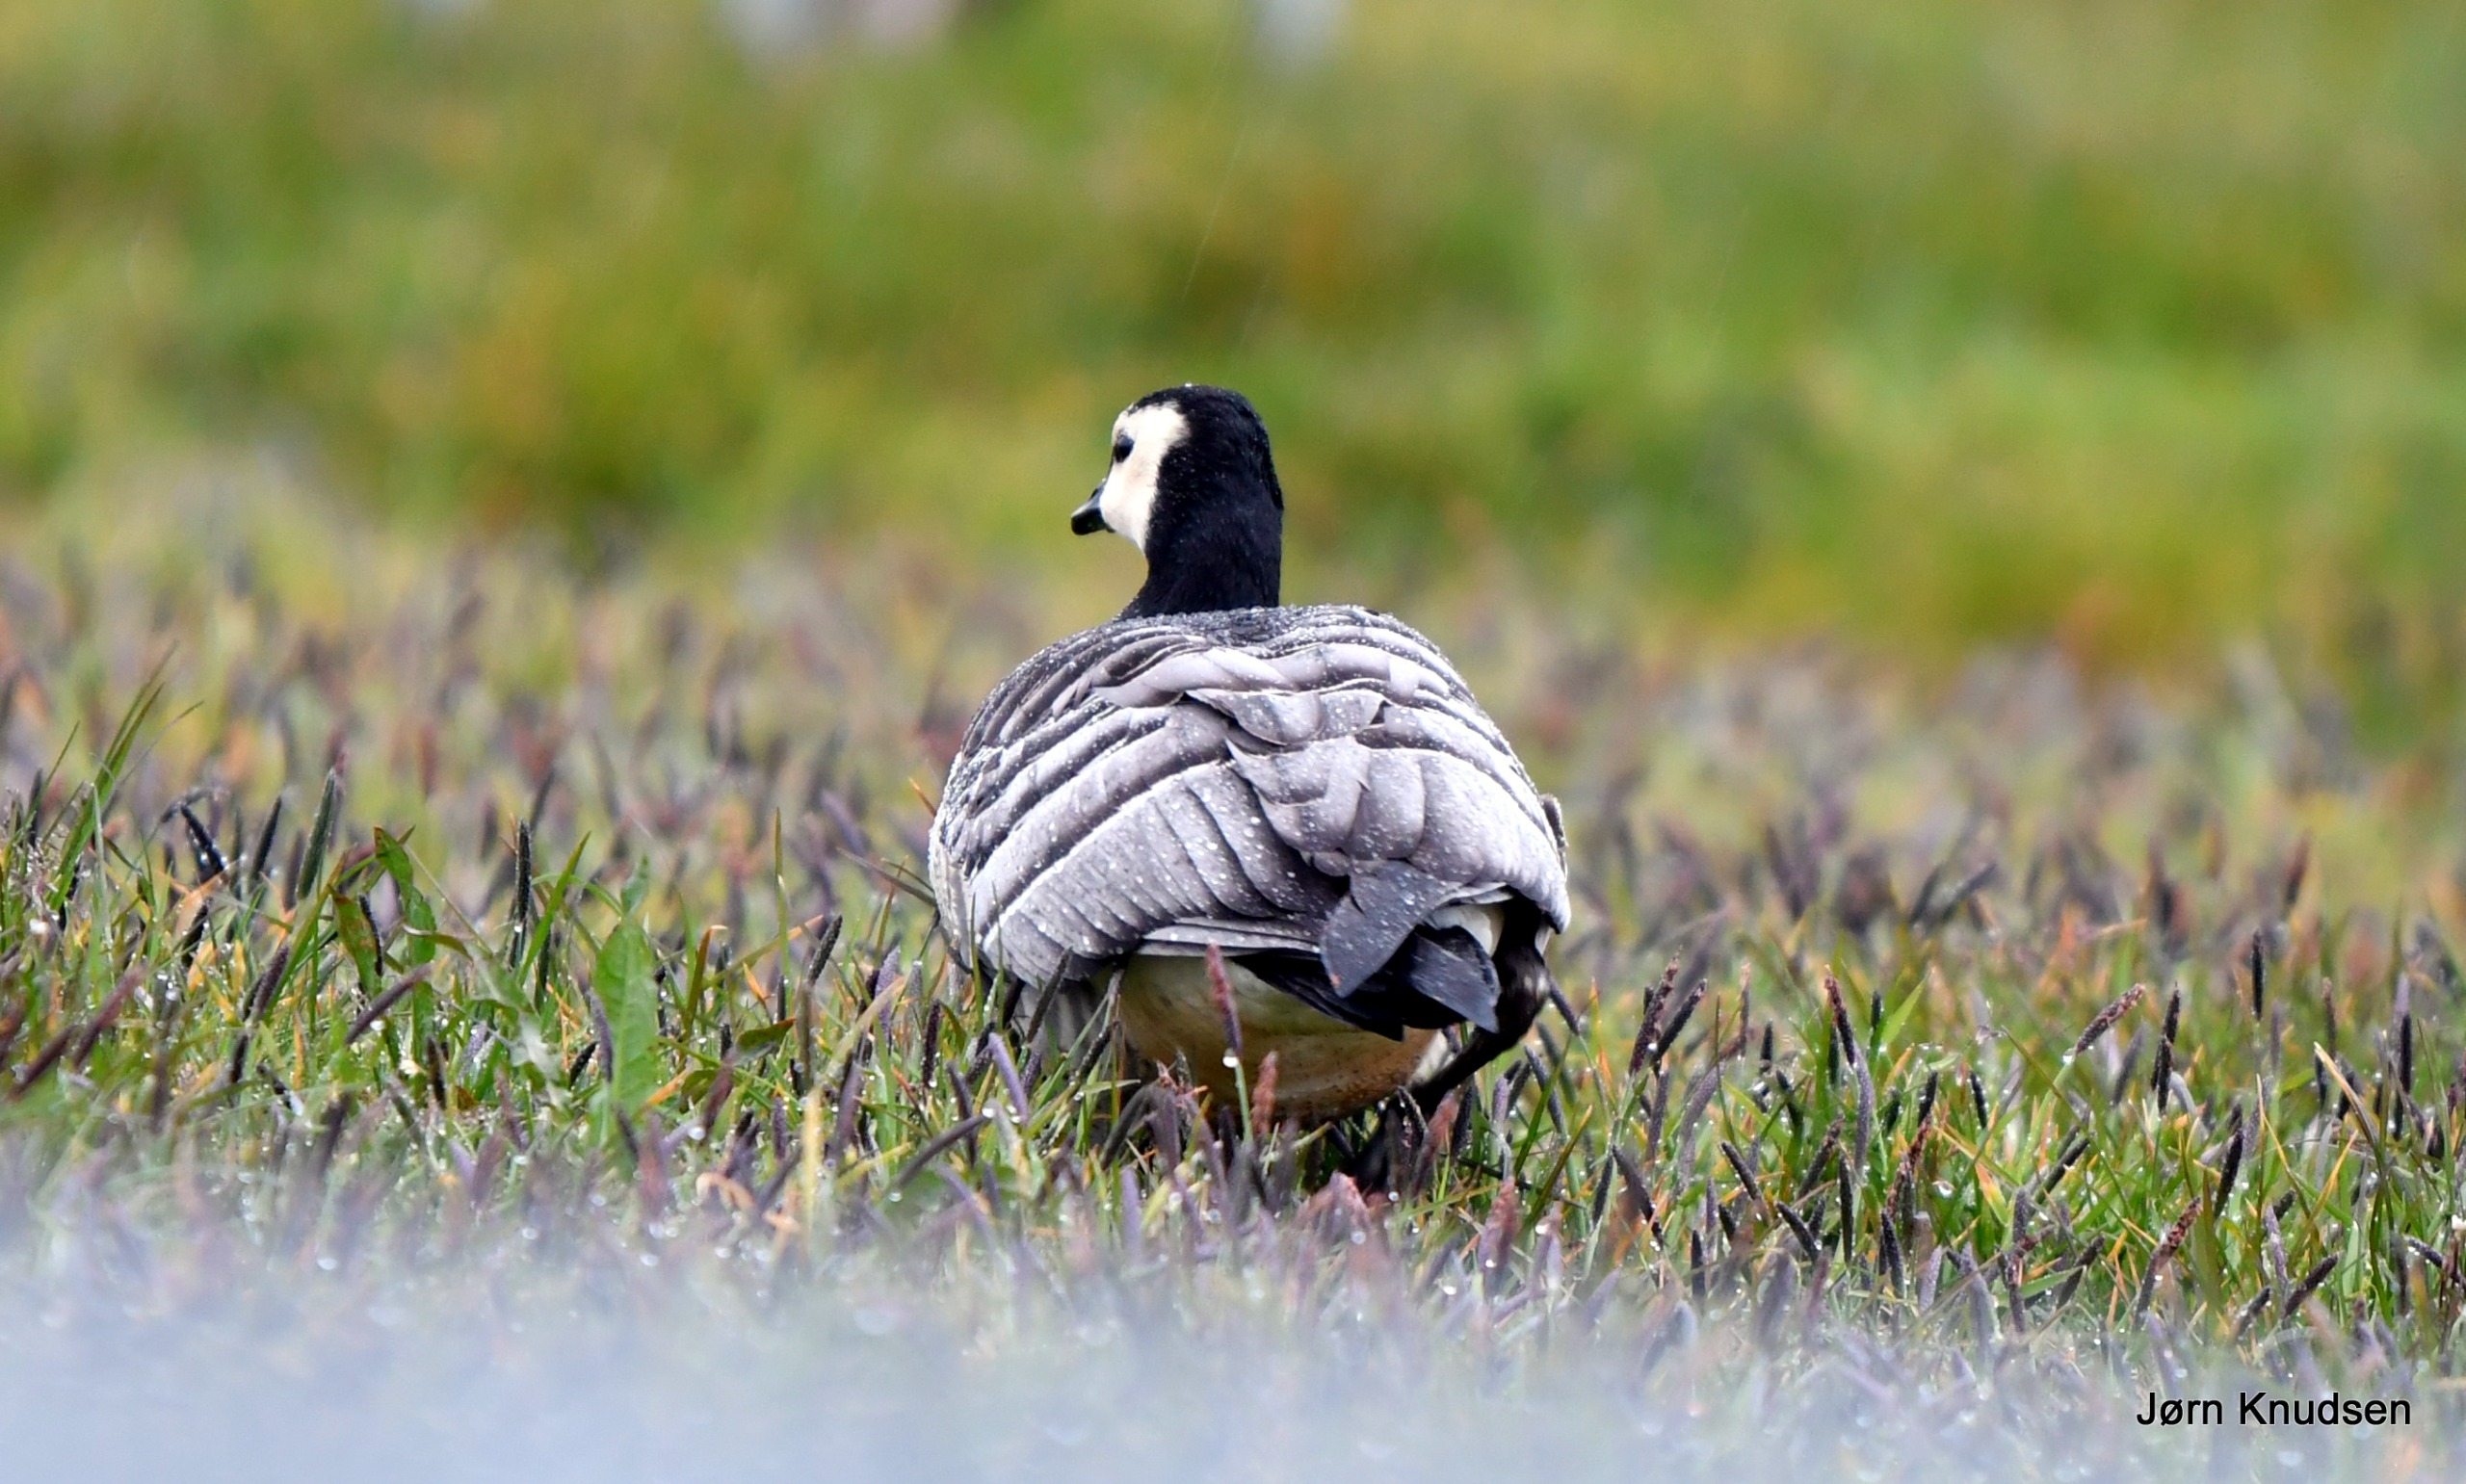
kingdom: Animalia
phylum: Chordata
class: Aves
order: Anseriformes
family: Anatidae
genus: Branta
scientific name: Branta leucopsis
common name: Bramgås
